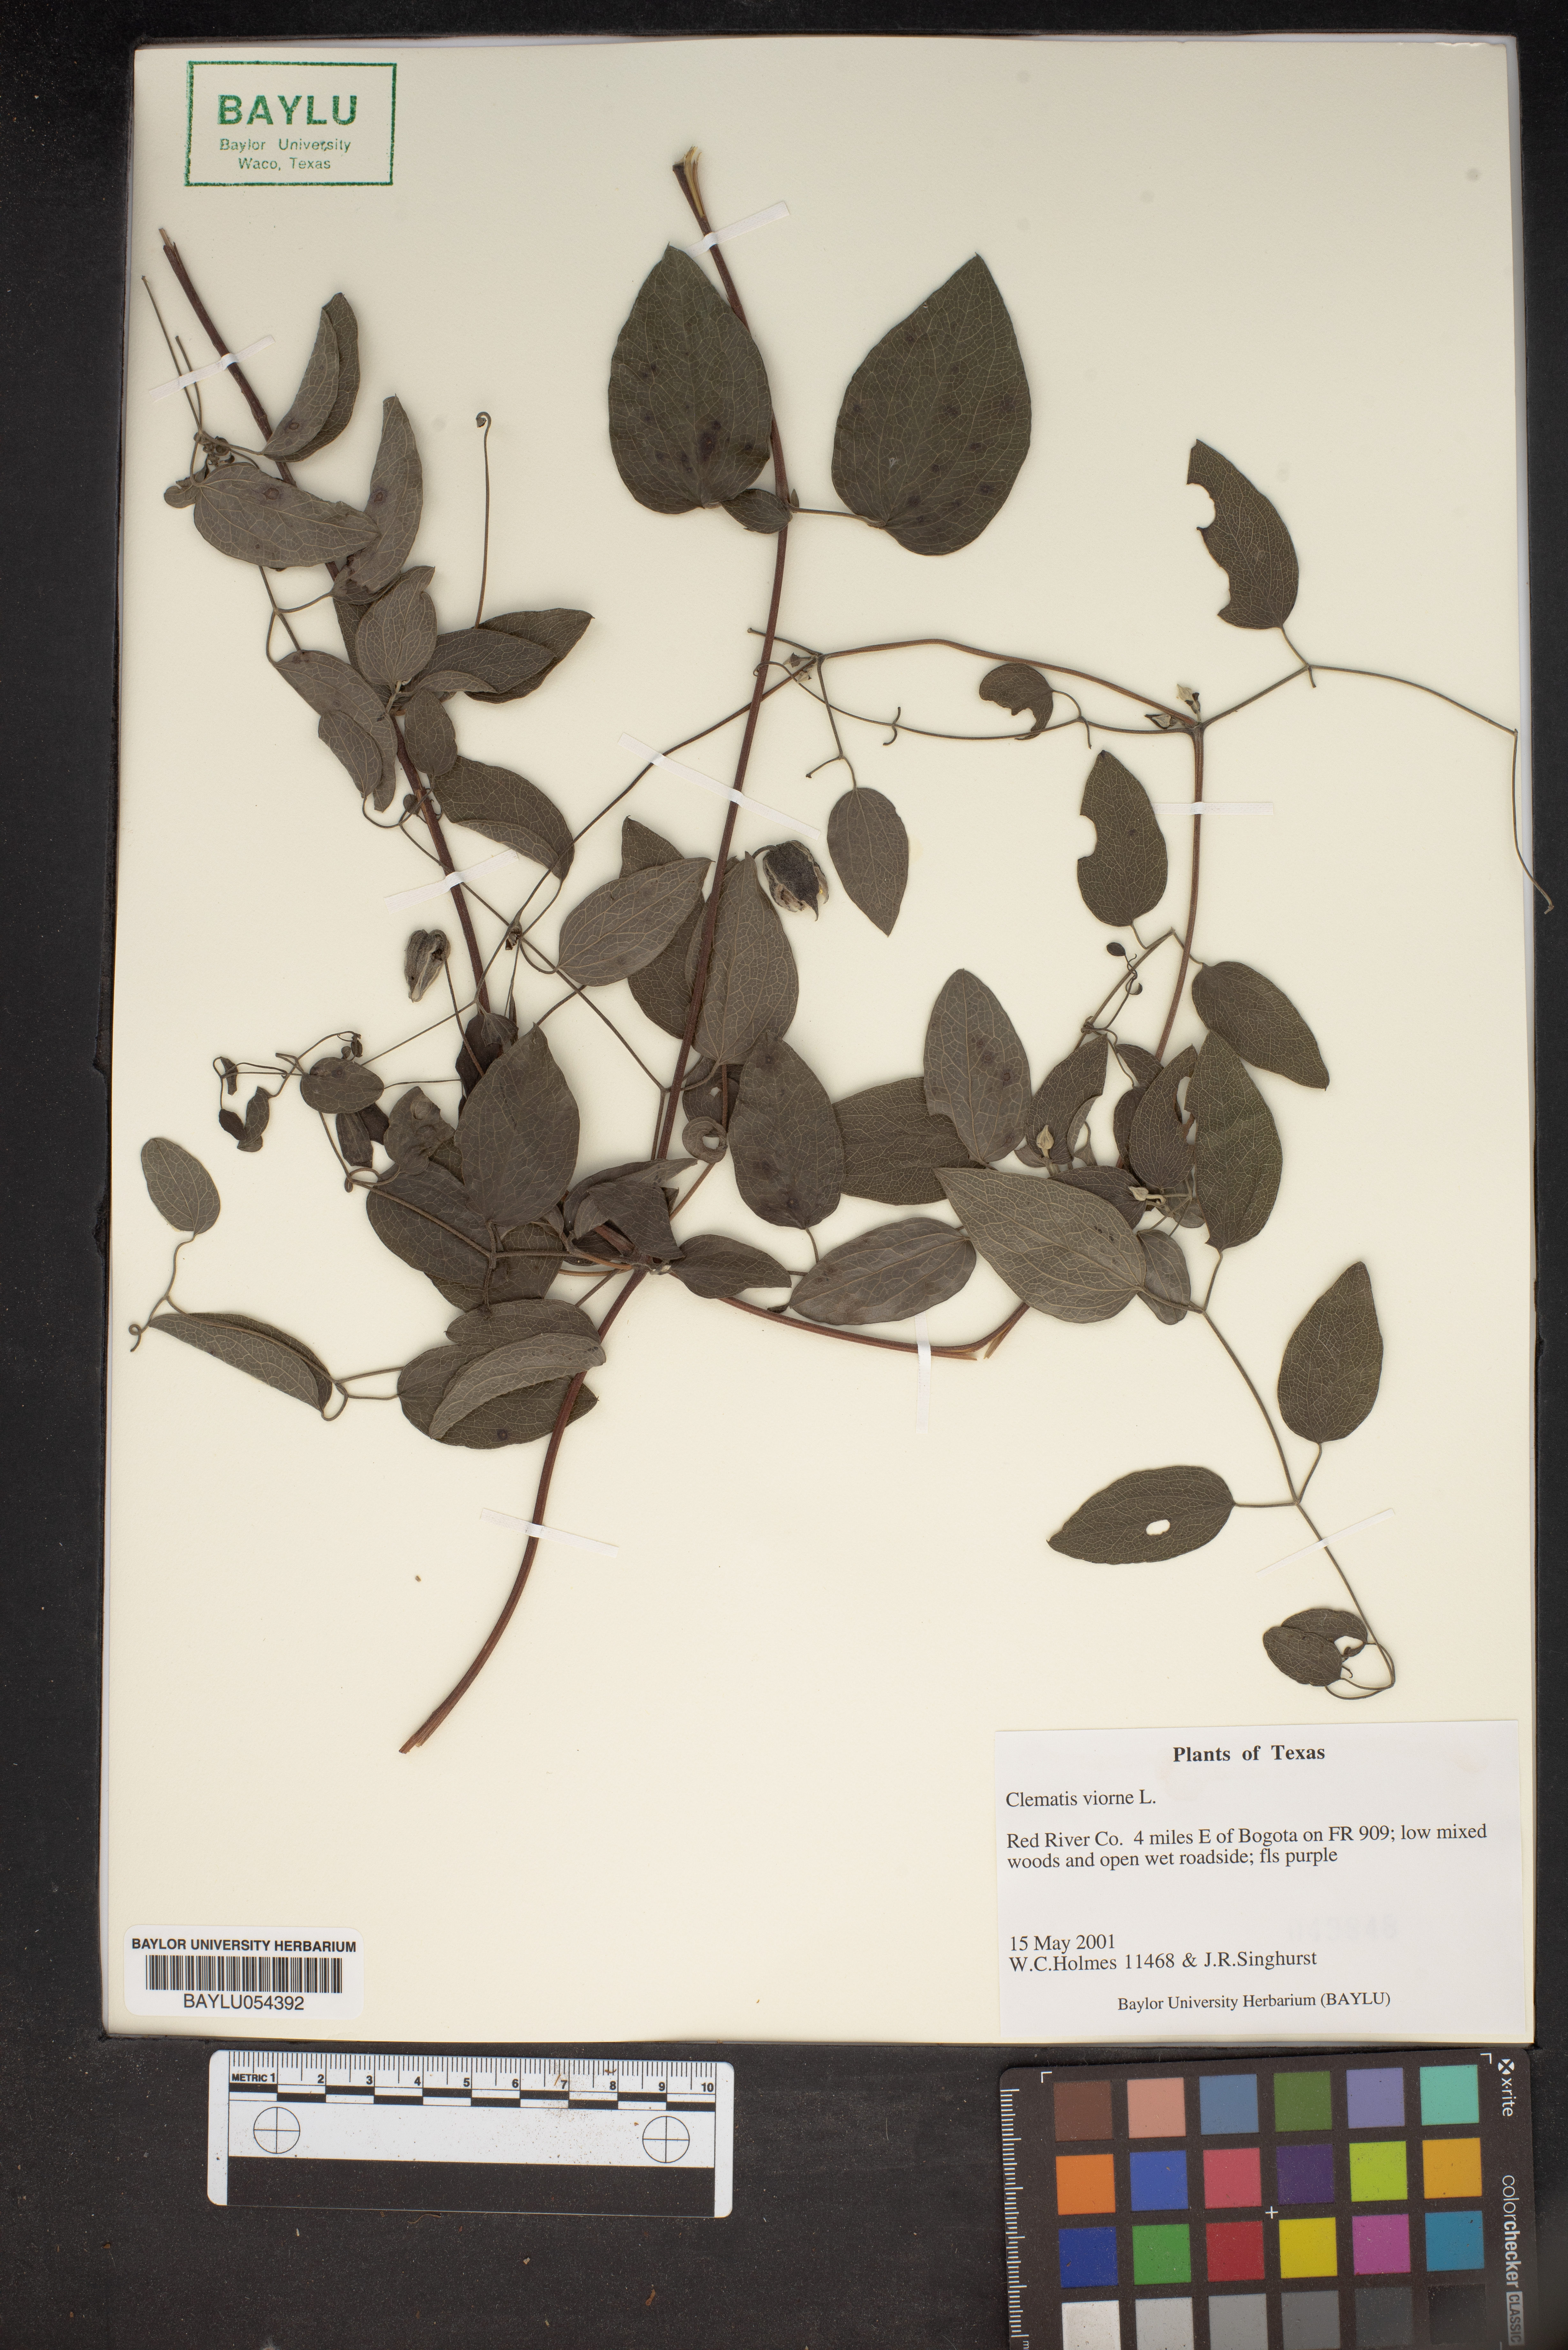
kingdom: Plantae
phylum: Tracheophyta
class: Magnoliopsida
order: Ranunculales
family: Ranunculaceae
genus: Clematis
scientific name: Clematis viorna
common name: Leather-flower
